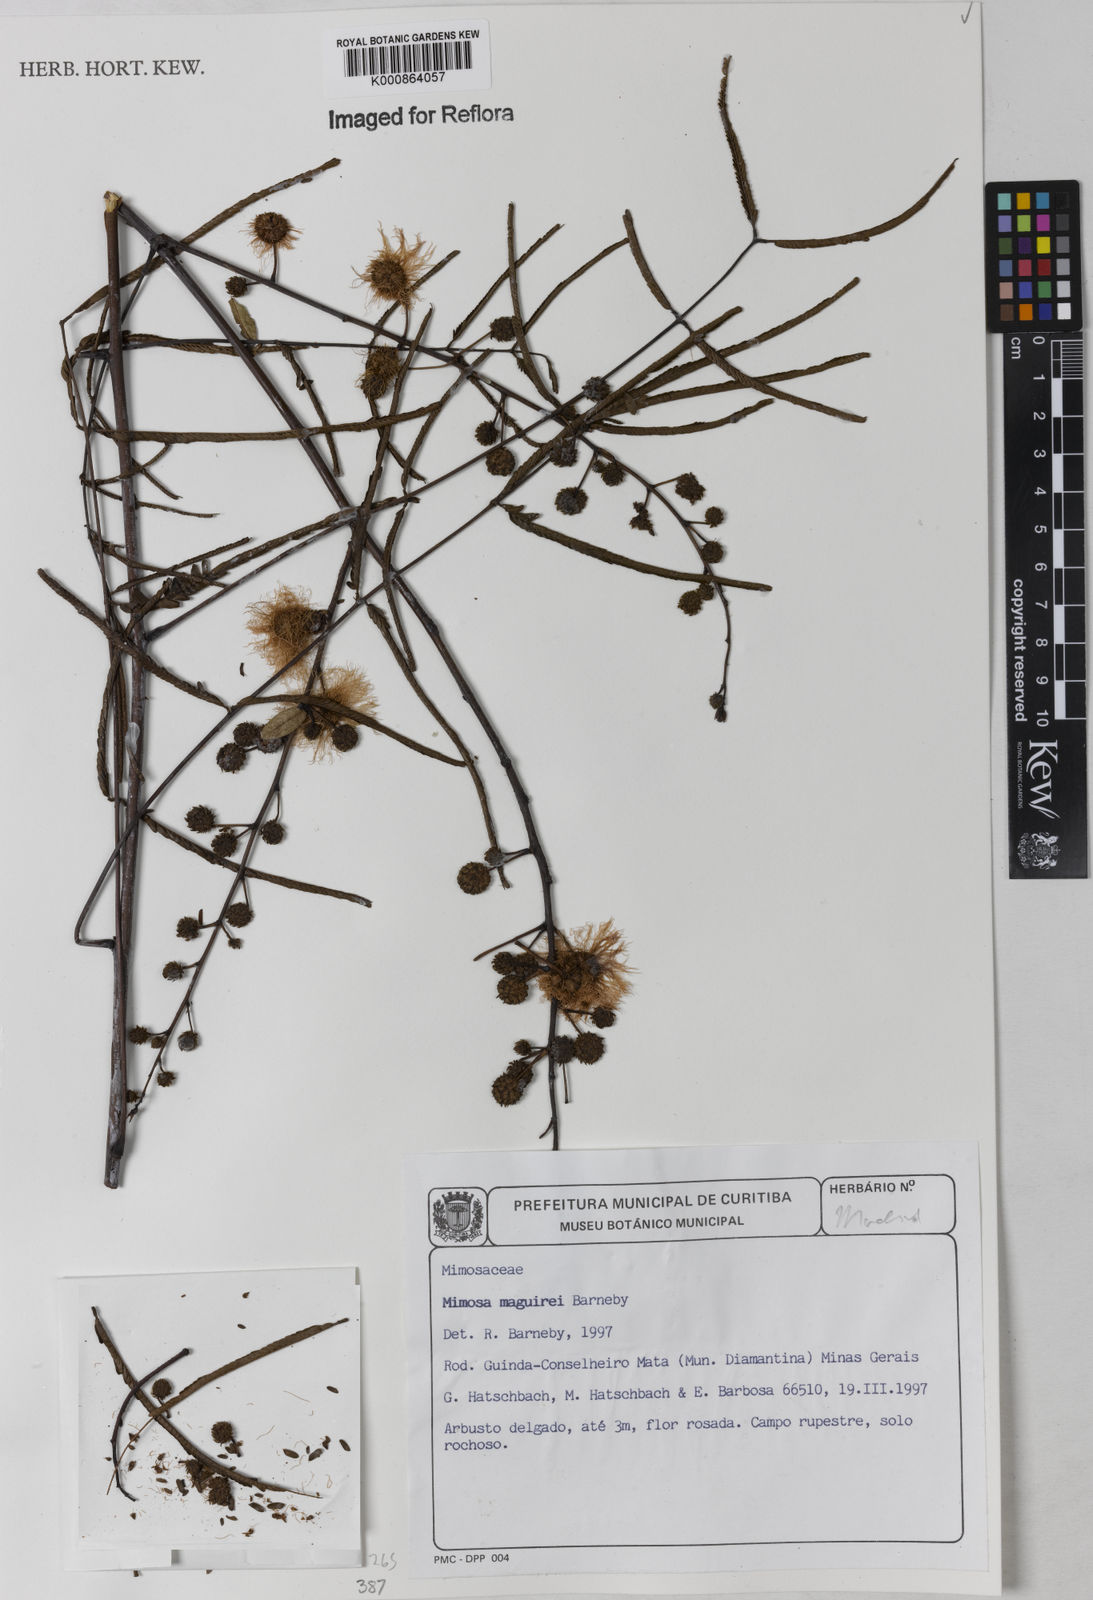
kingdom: Plantae
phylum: Tracheophyta
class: Magnoliopsida
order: Fabales
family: Fabaceae
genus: Mimosa
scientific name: Mimosa maguirei
